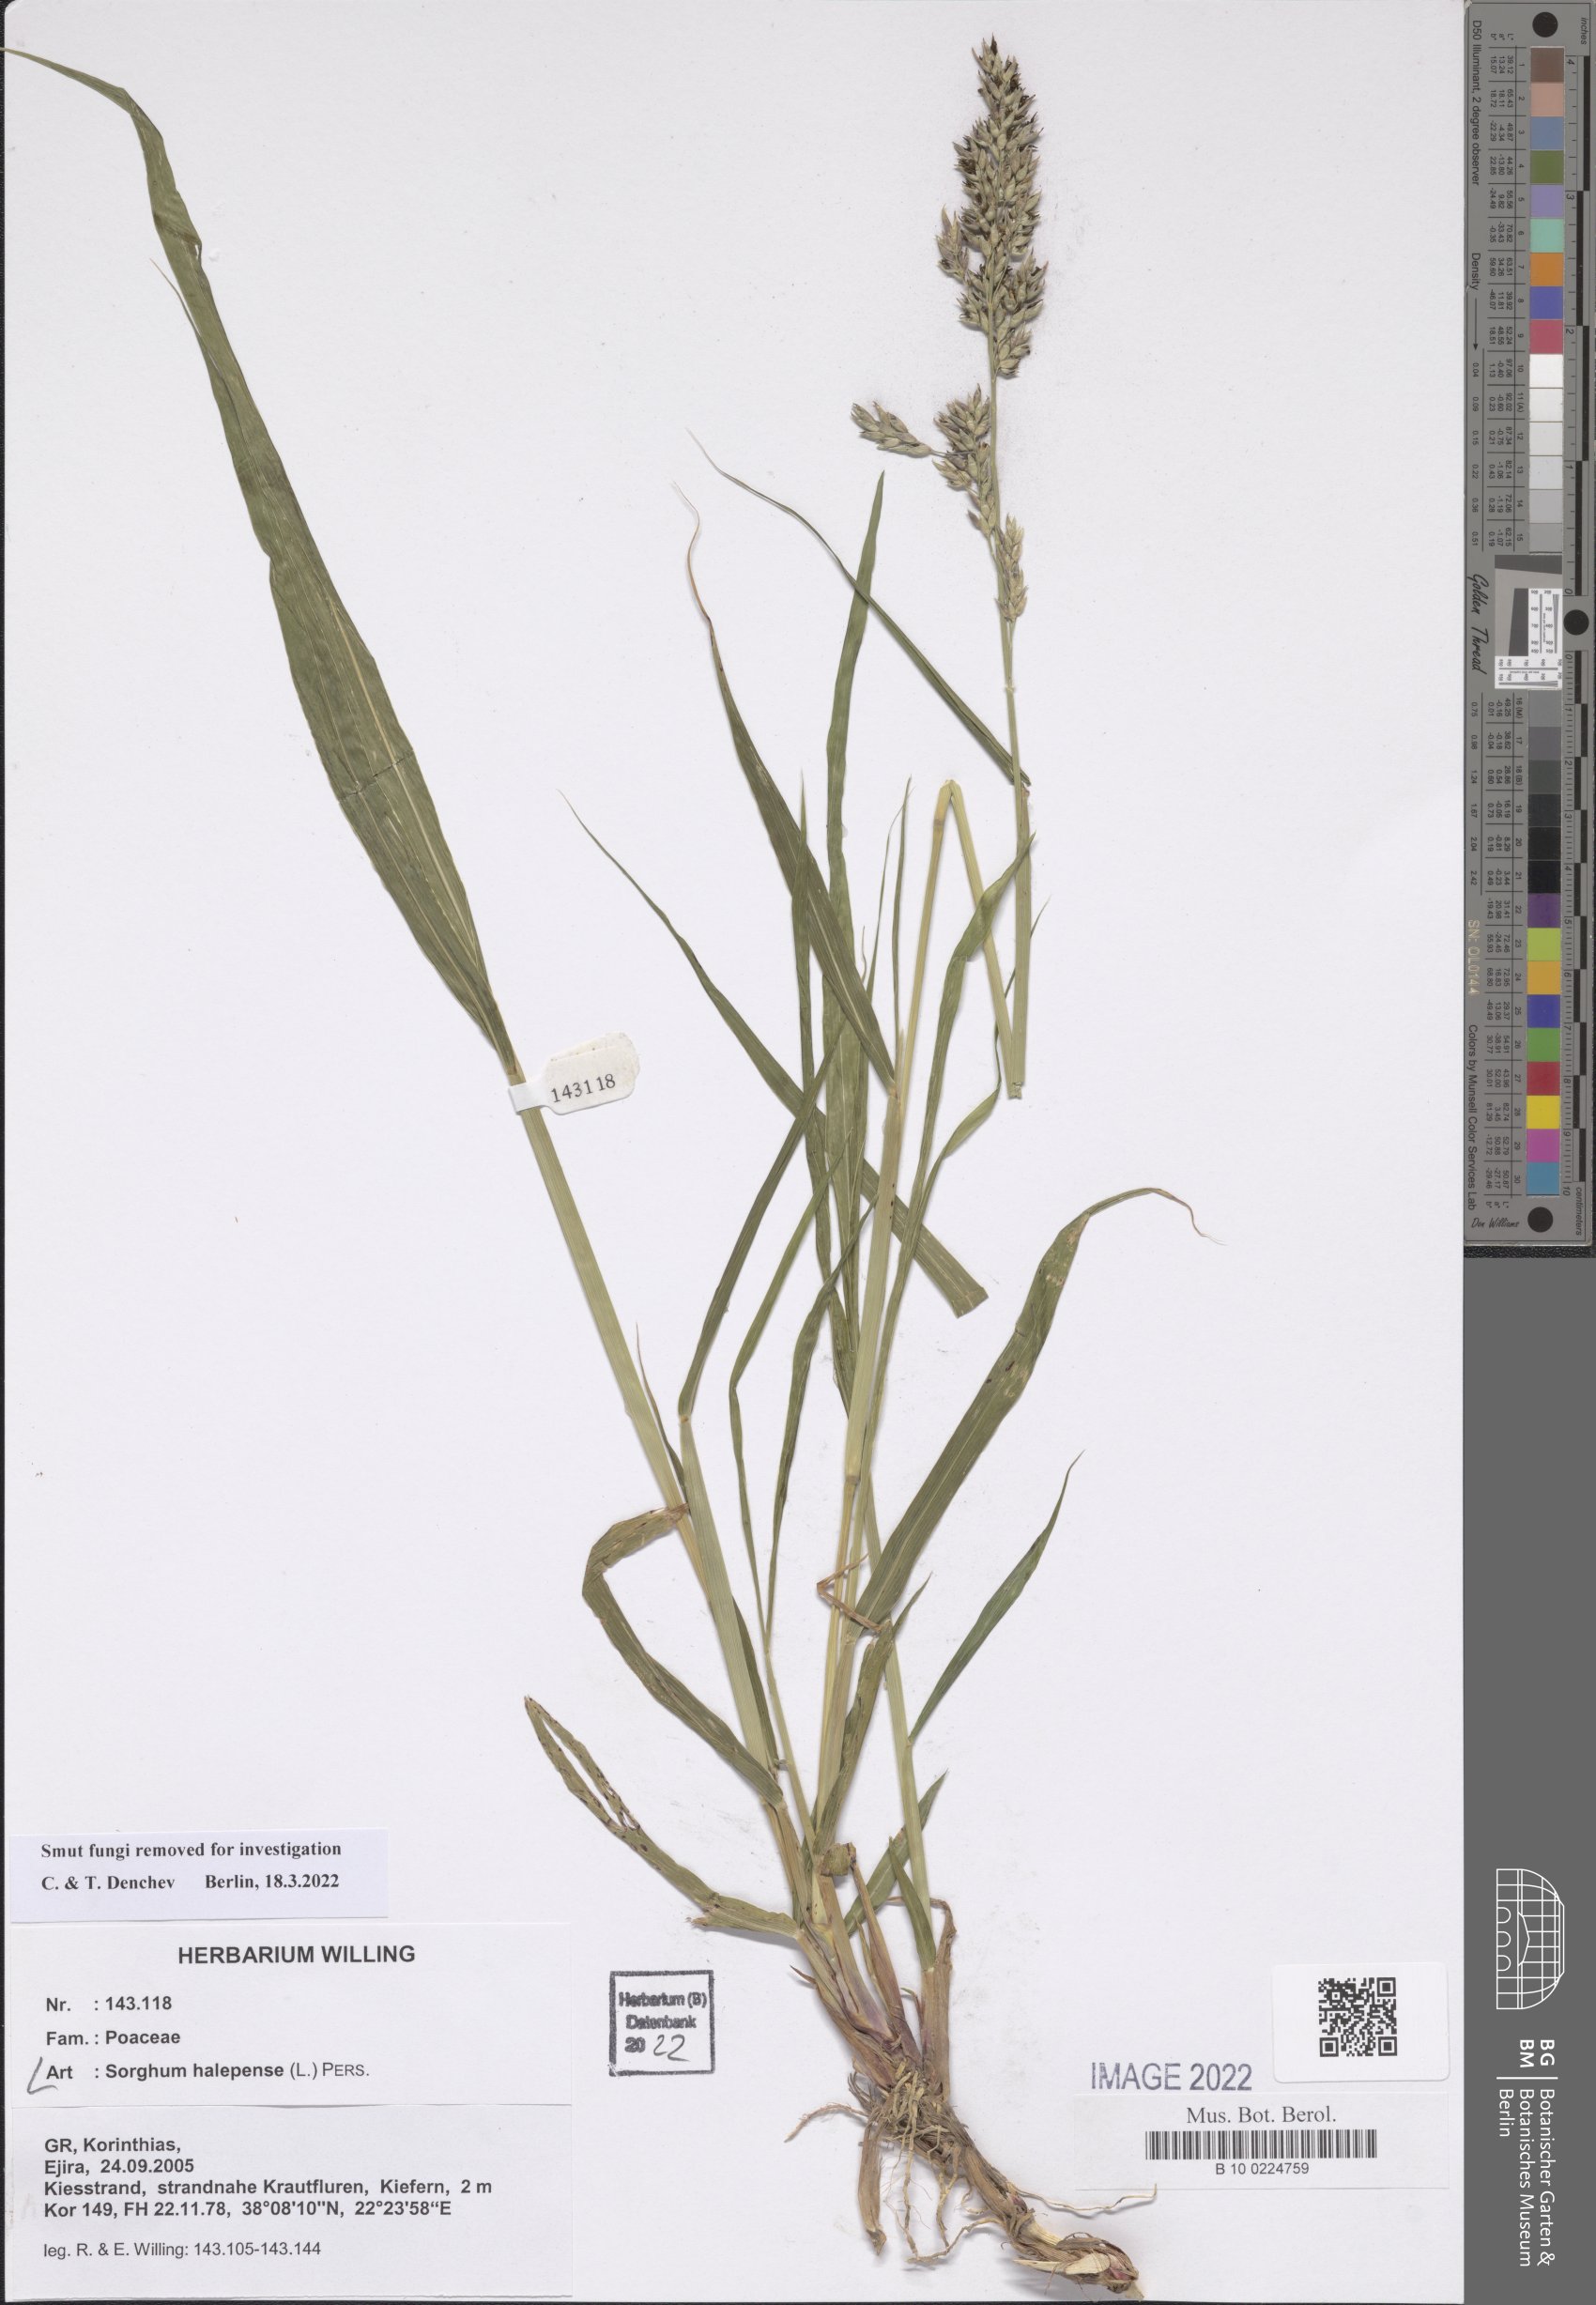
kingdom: Plantae
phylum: Tracheophyta
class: Liliopsida
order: Poales
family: Poaceae
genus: Sorghum
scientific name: Sorghum halepense
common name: Johnson-grass
